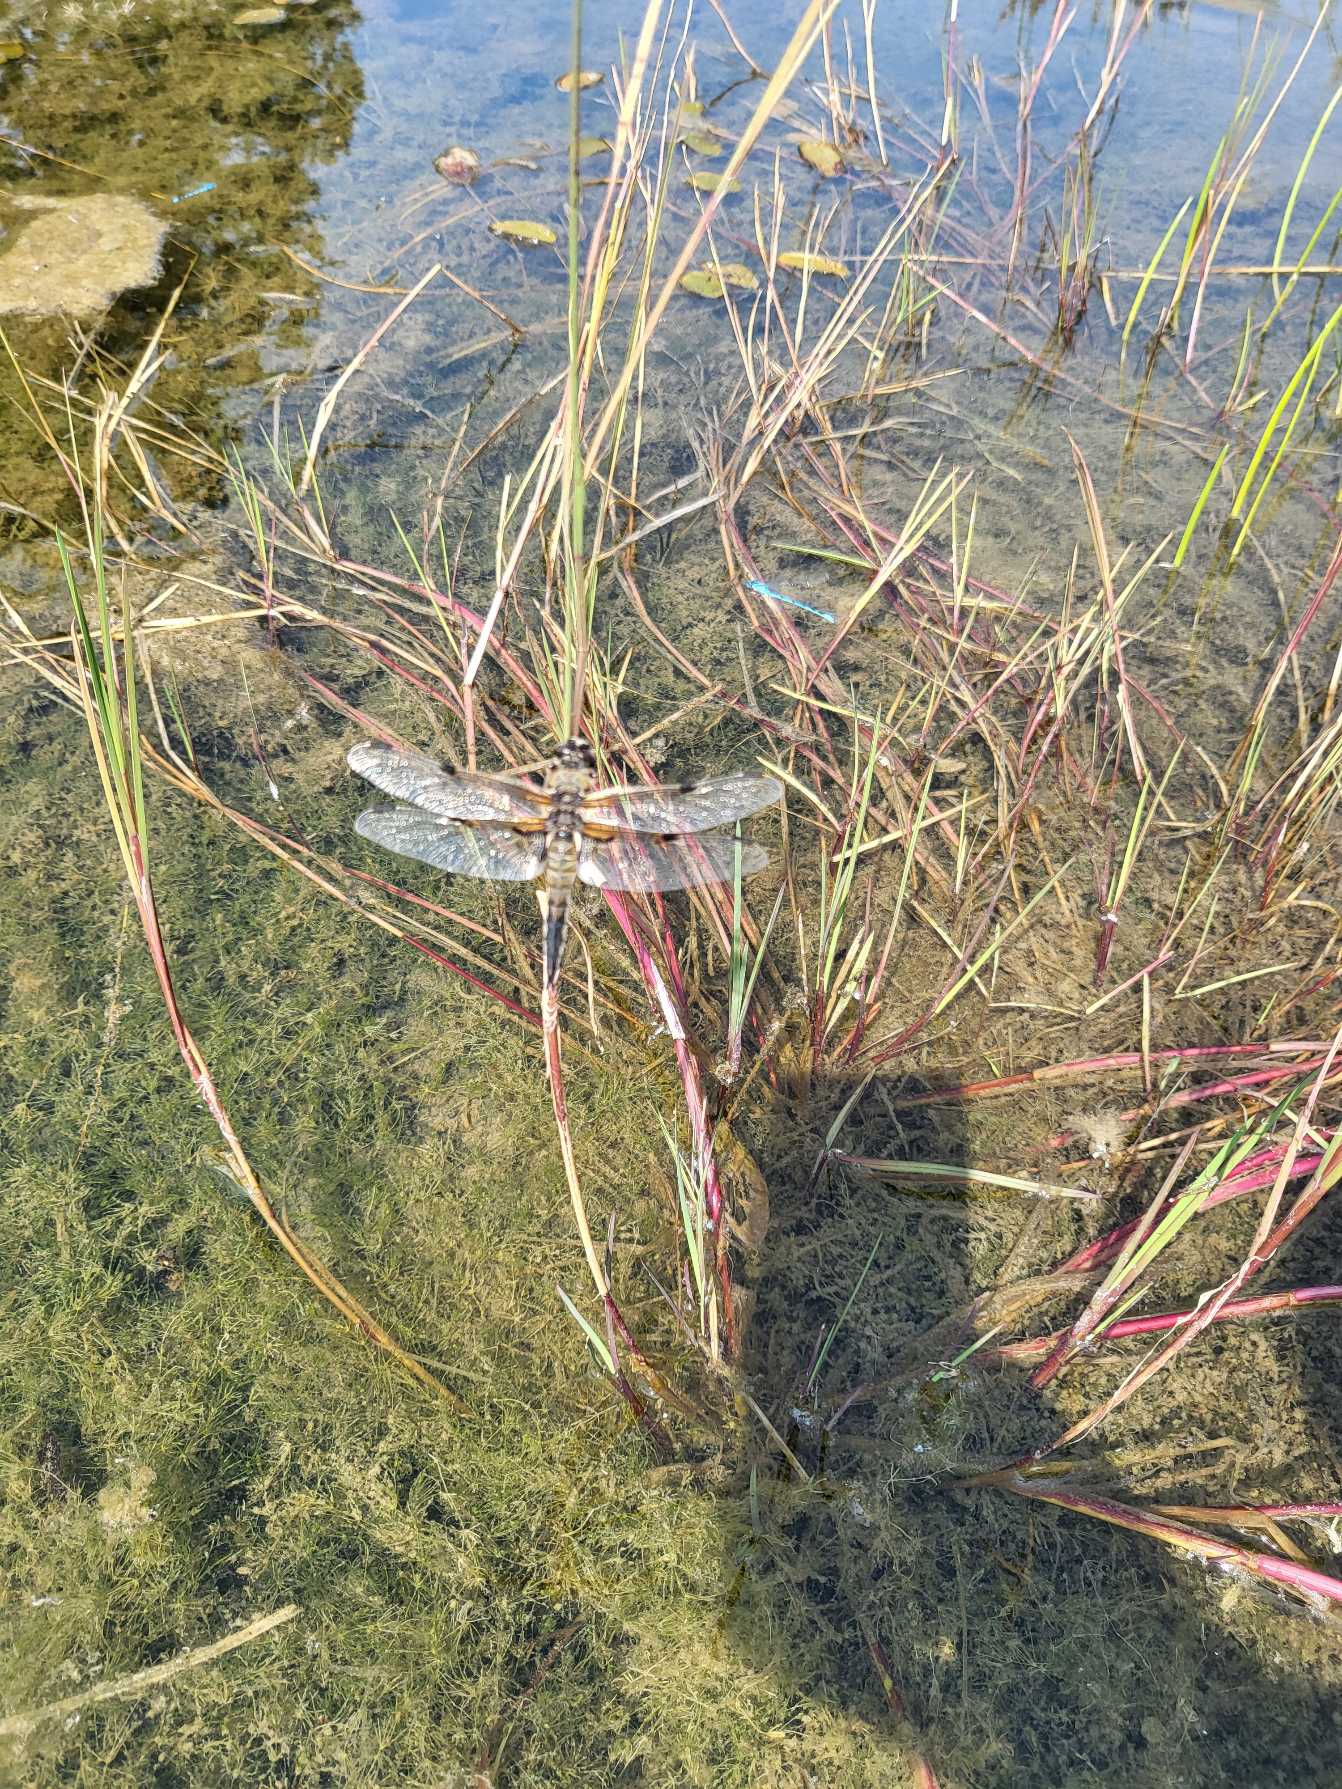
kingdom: Animalia
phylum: Arthropoda
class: Insecta
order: Odonata
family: Libellulidae
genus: Libellula
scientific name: Libellula quadrimaculata
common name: Fireplettet libel
